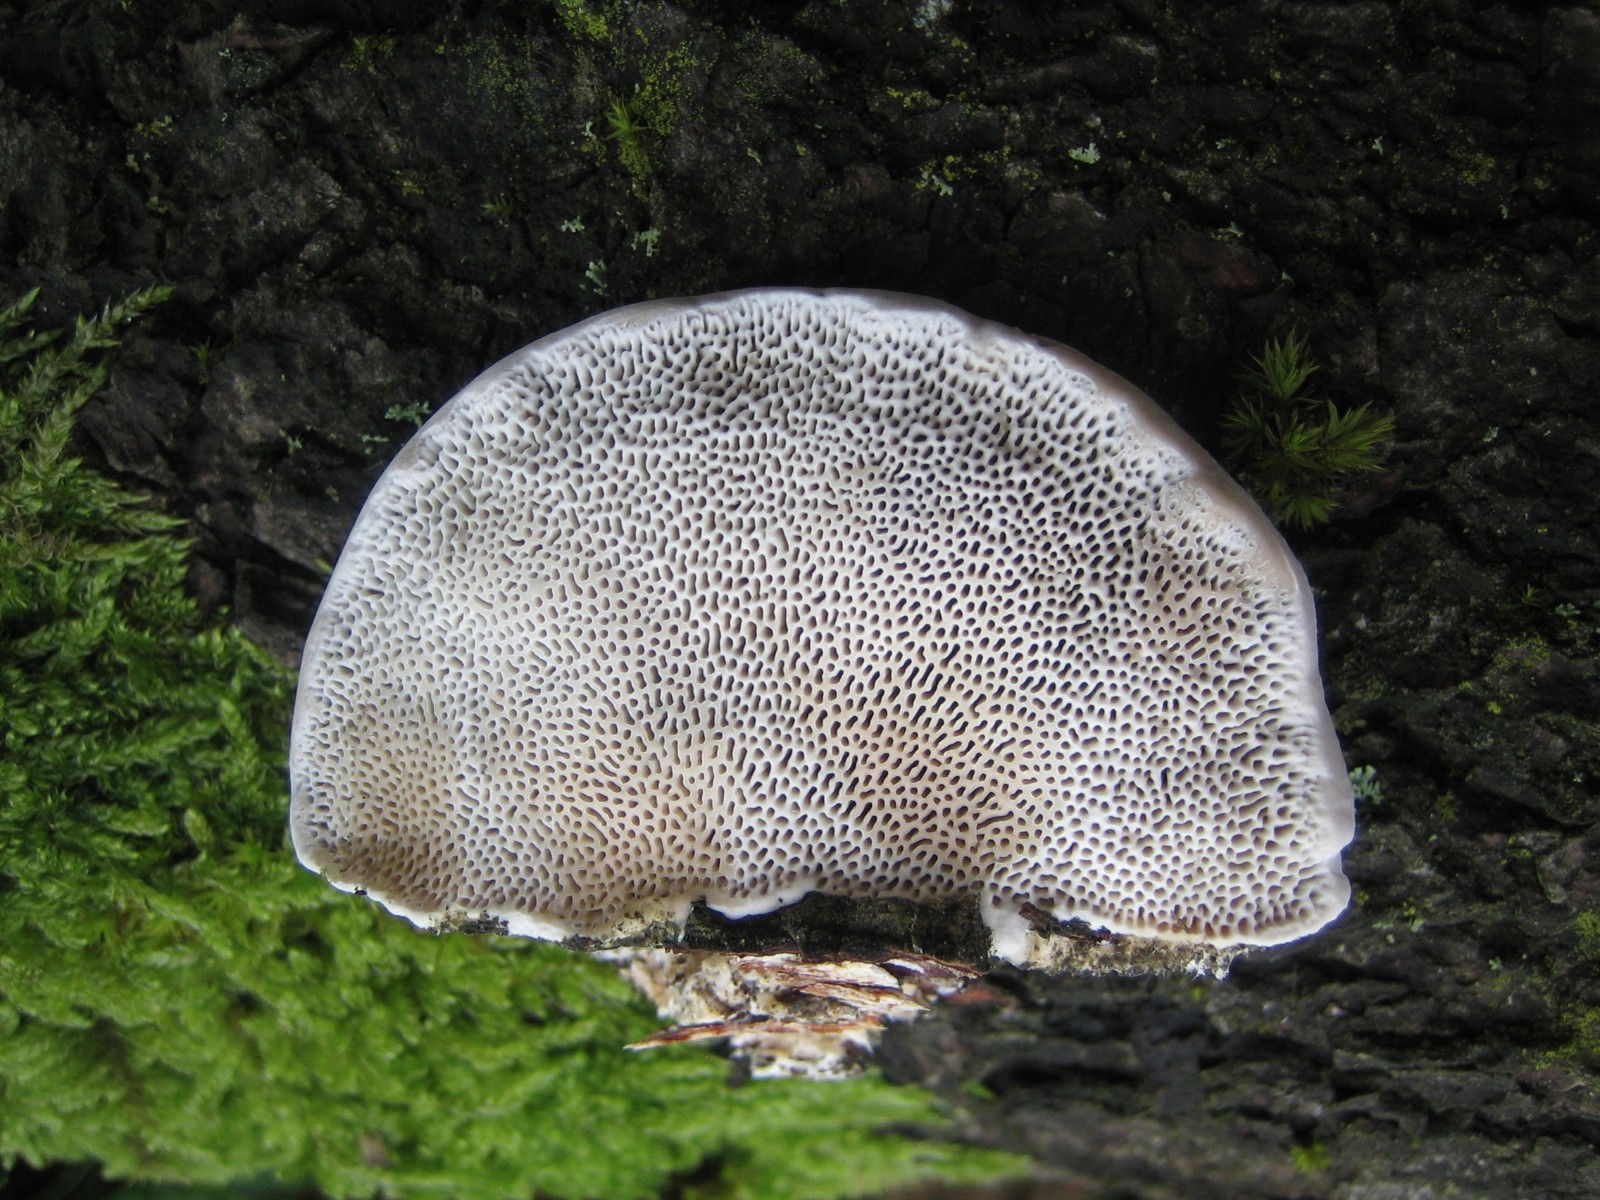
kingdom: Fungi
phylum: Basidiomycota
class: Agaricomycetes
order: Polyporales
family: Polyporaceae
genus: Daedaleopsis
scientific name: Daedaleopsis confragosa
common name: rødmende læderporesvamp
